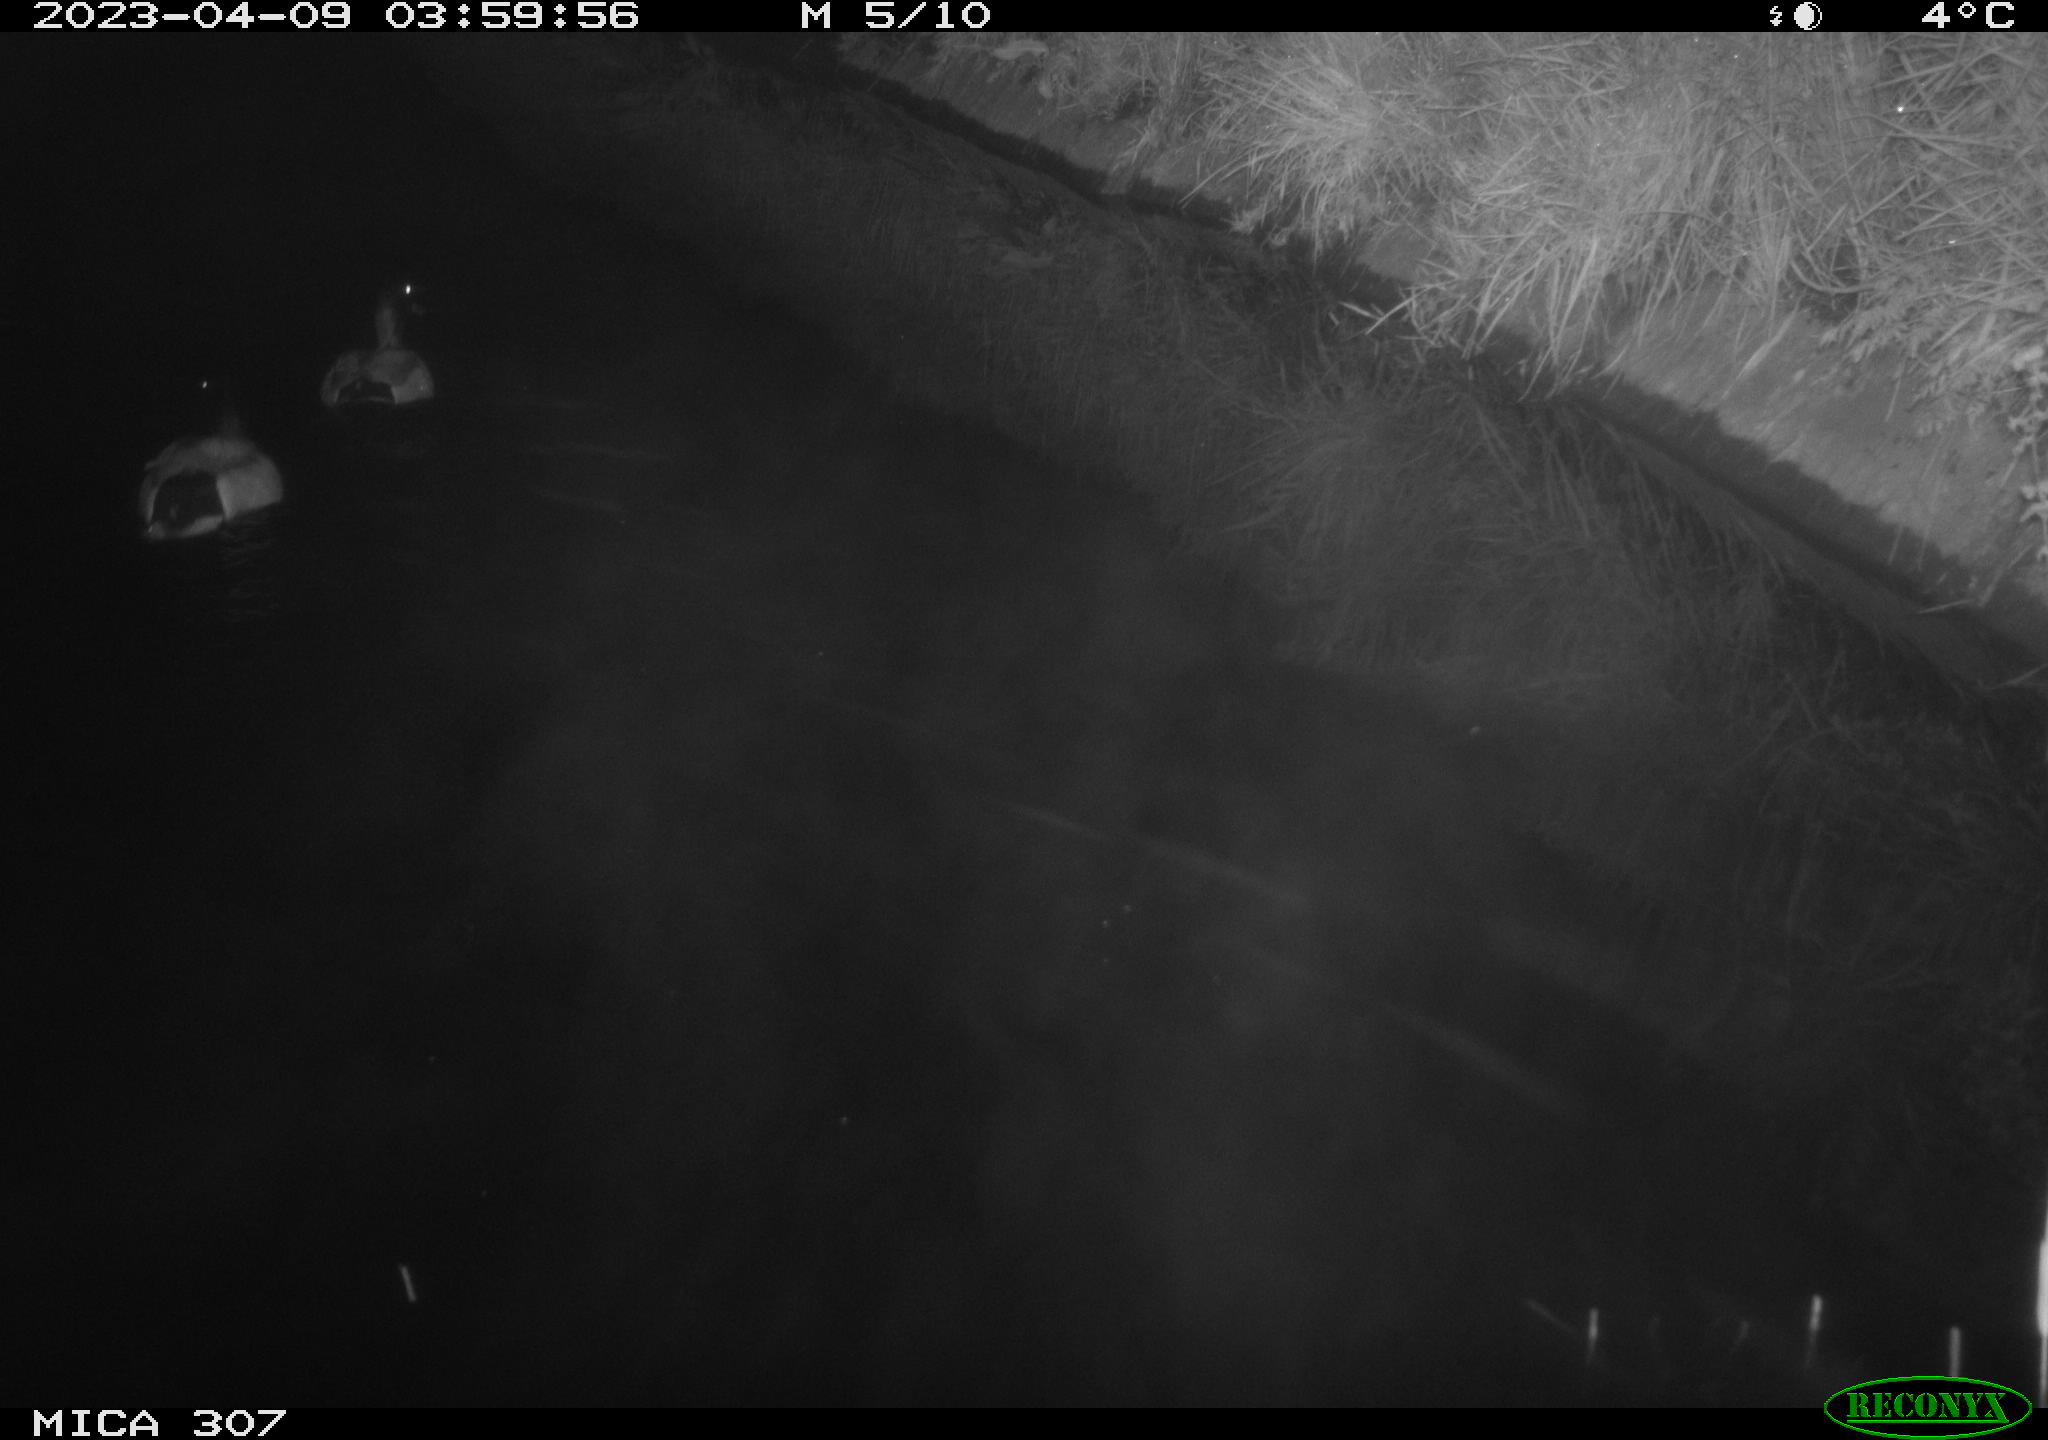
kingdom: Animalia
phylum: Chordata
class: Mammalia
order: Rodentia
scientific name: Rodentia
